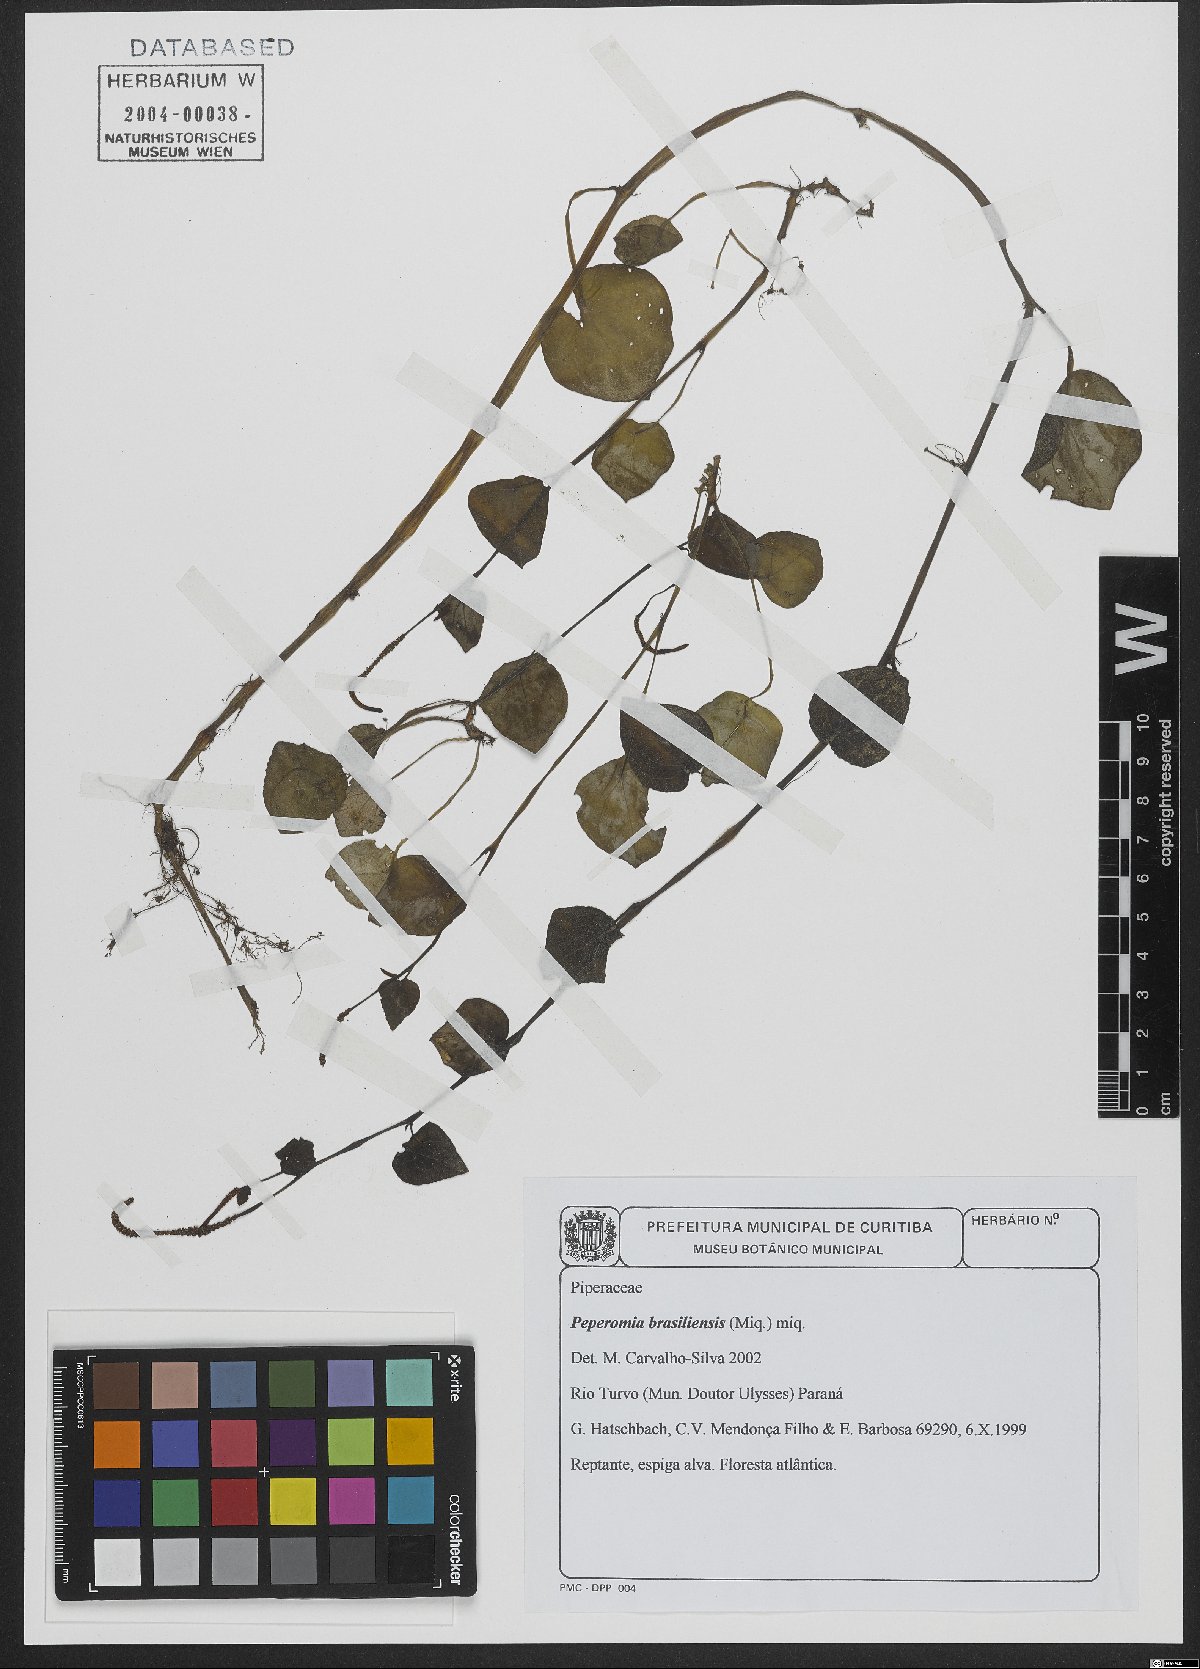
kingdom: Plantae
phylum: Tracheophyta
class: Magnoliopsida
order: Piperales
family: Piperaceae
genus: Peperomia
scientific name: Peperomia brasiliensis
